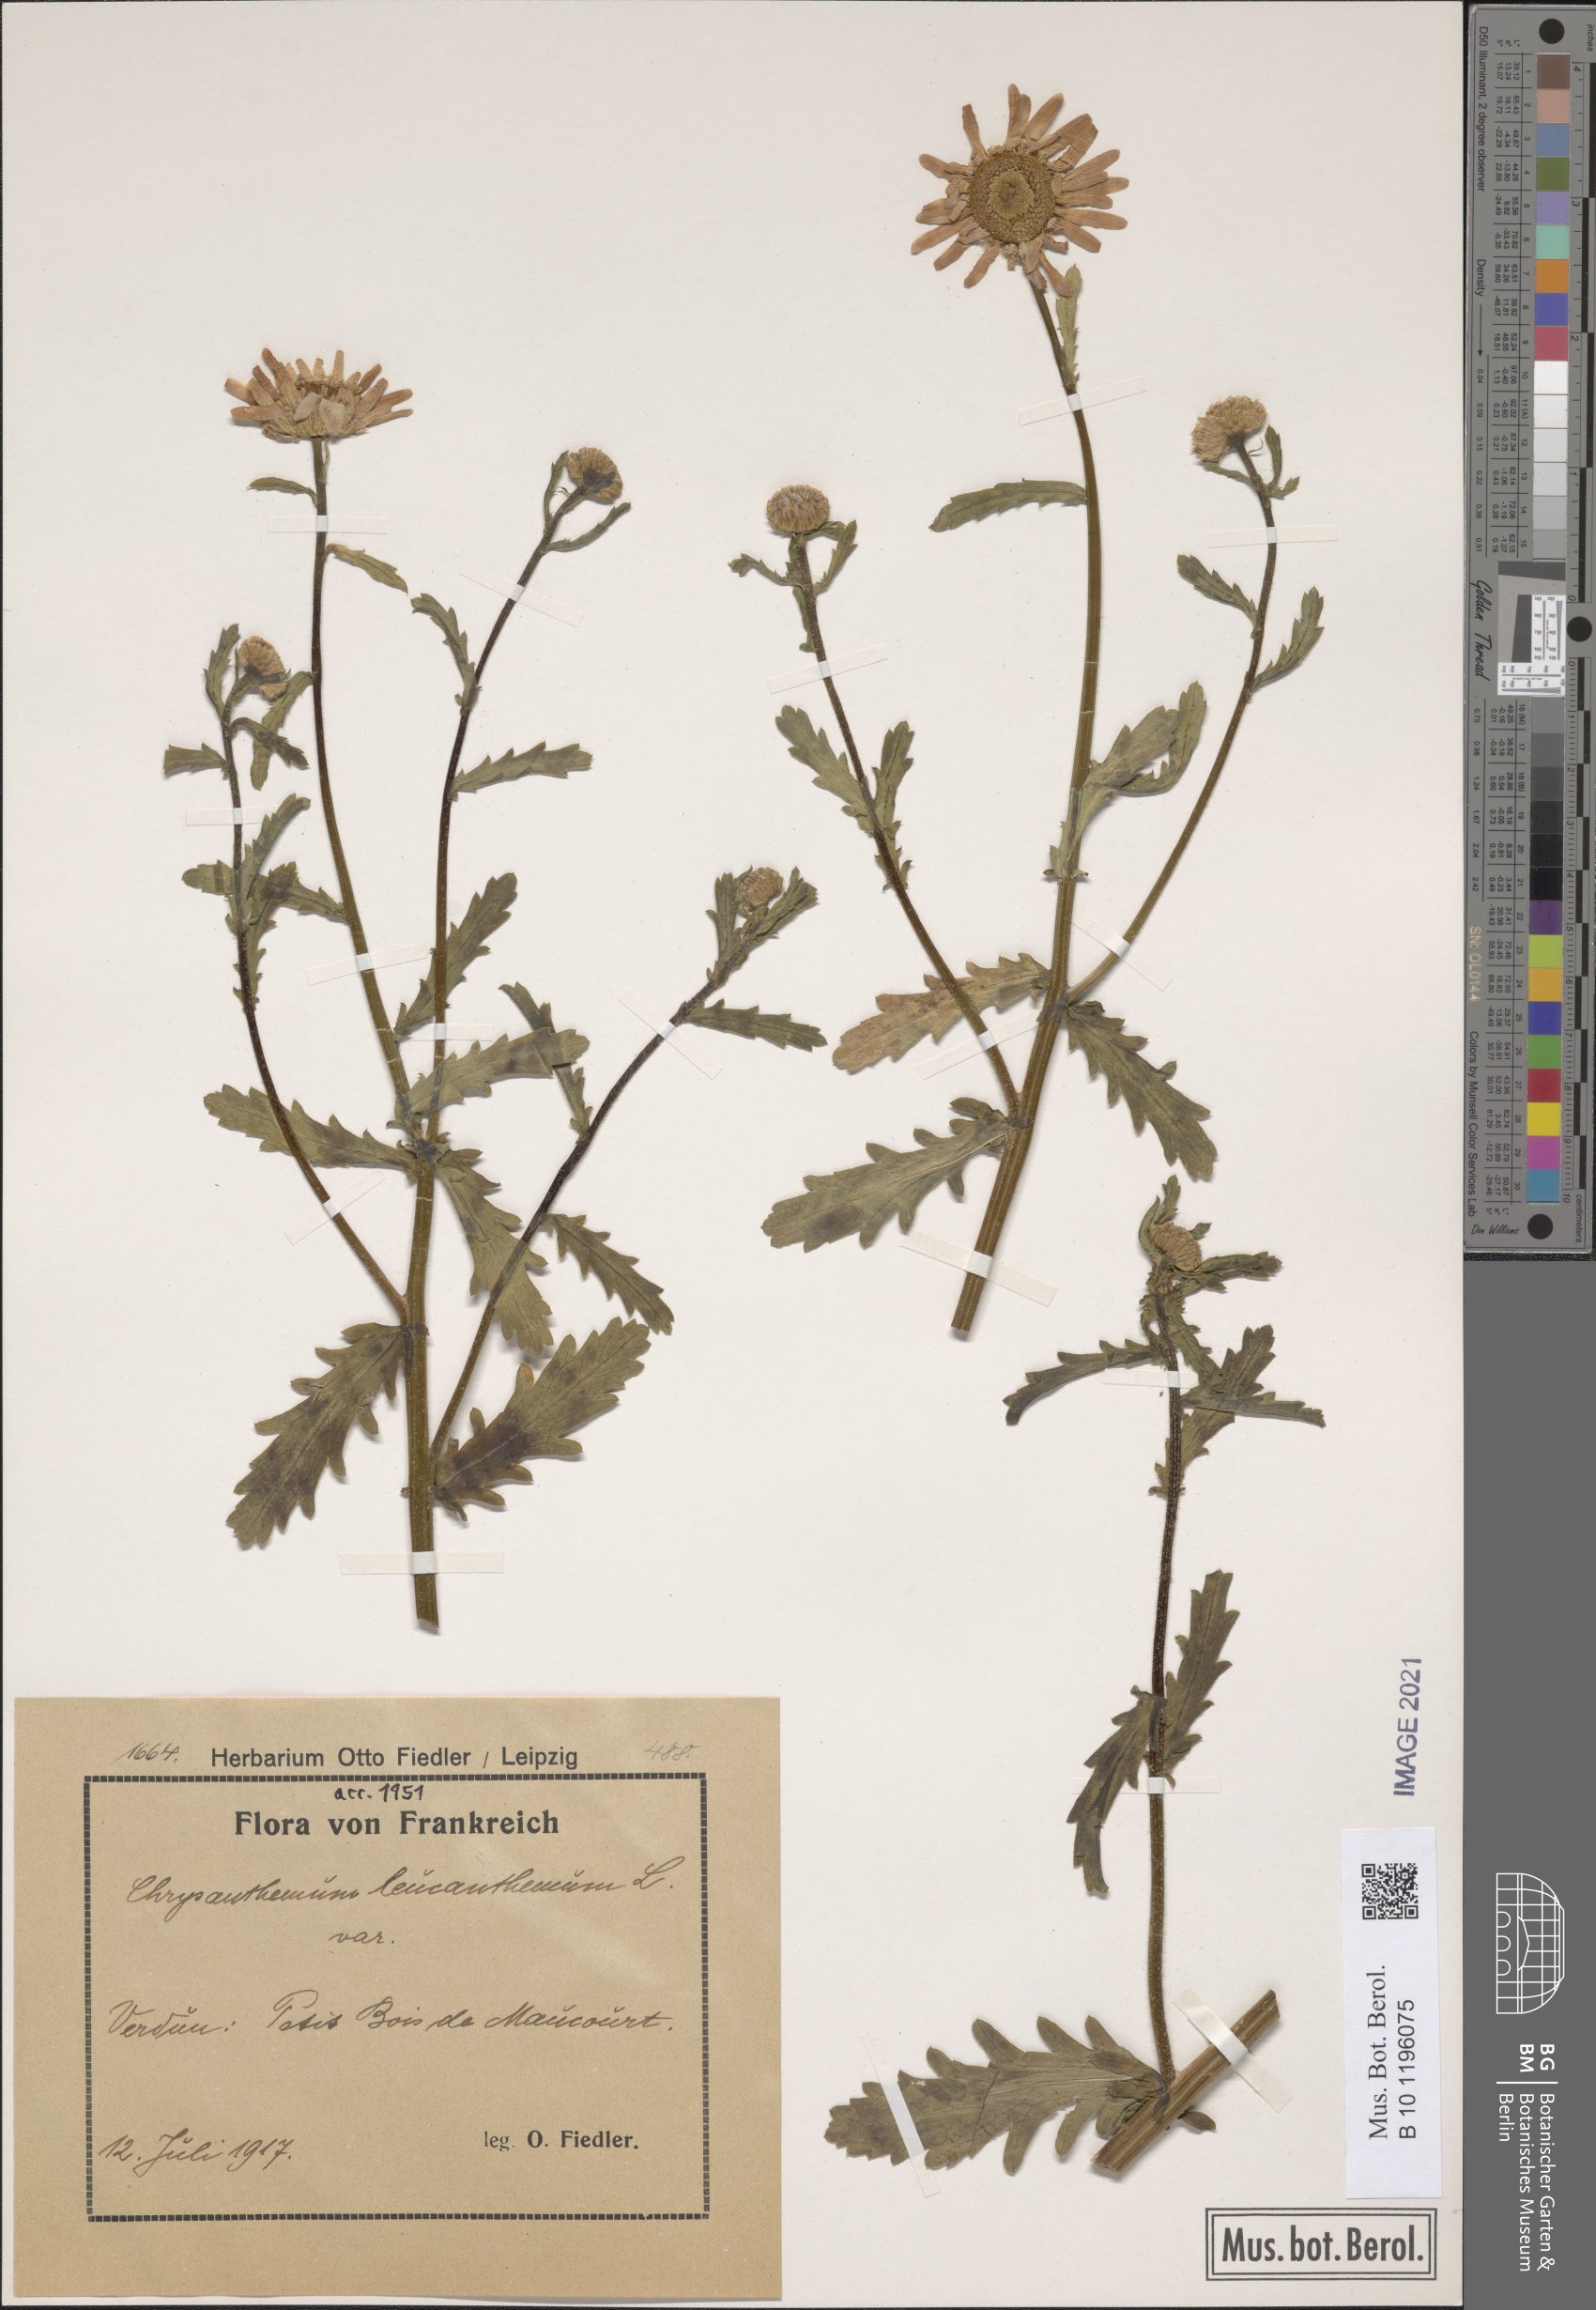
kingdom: Plantae
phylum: Tracheophyta
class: Magnoliopsida
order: Asterales
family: Asteraceae
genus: Leucanthemum
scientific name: Leucanthemum ircutianum
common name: Daisy
